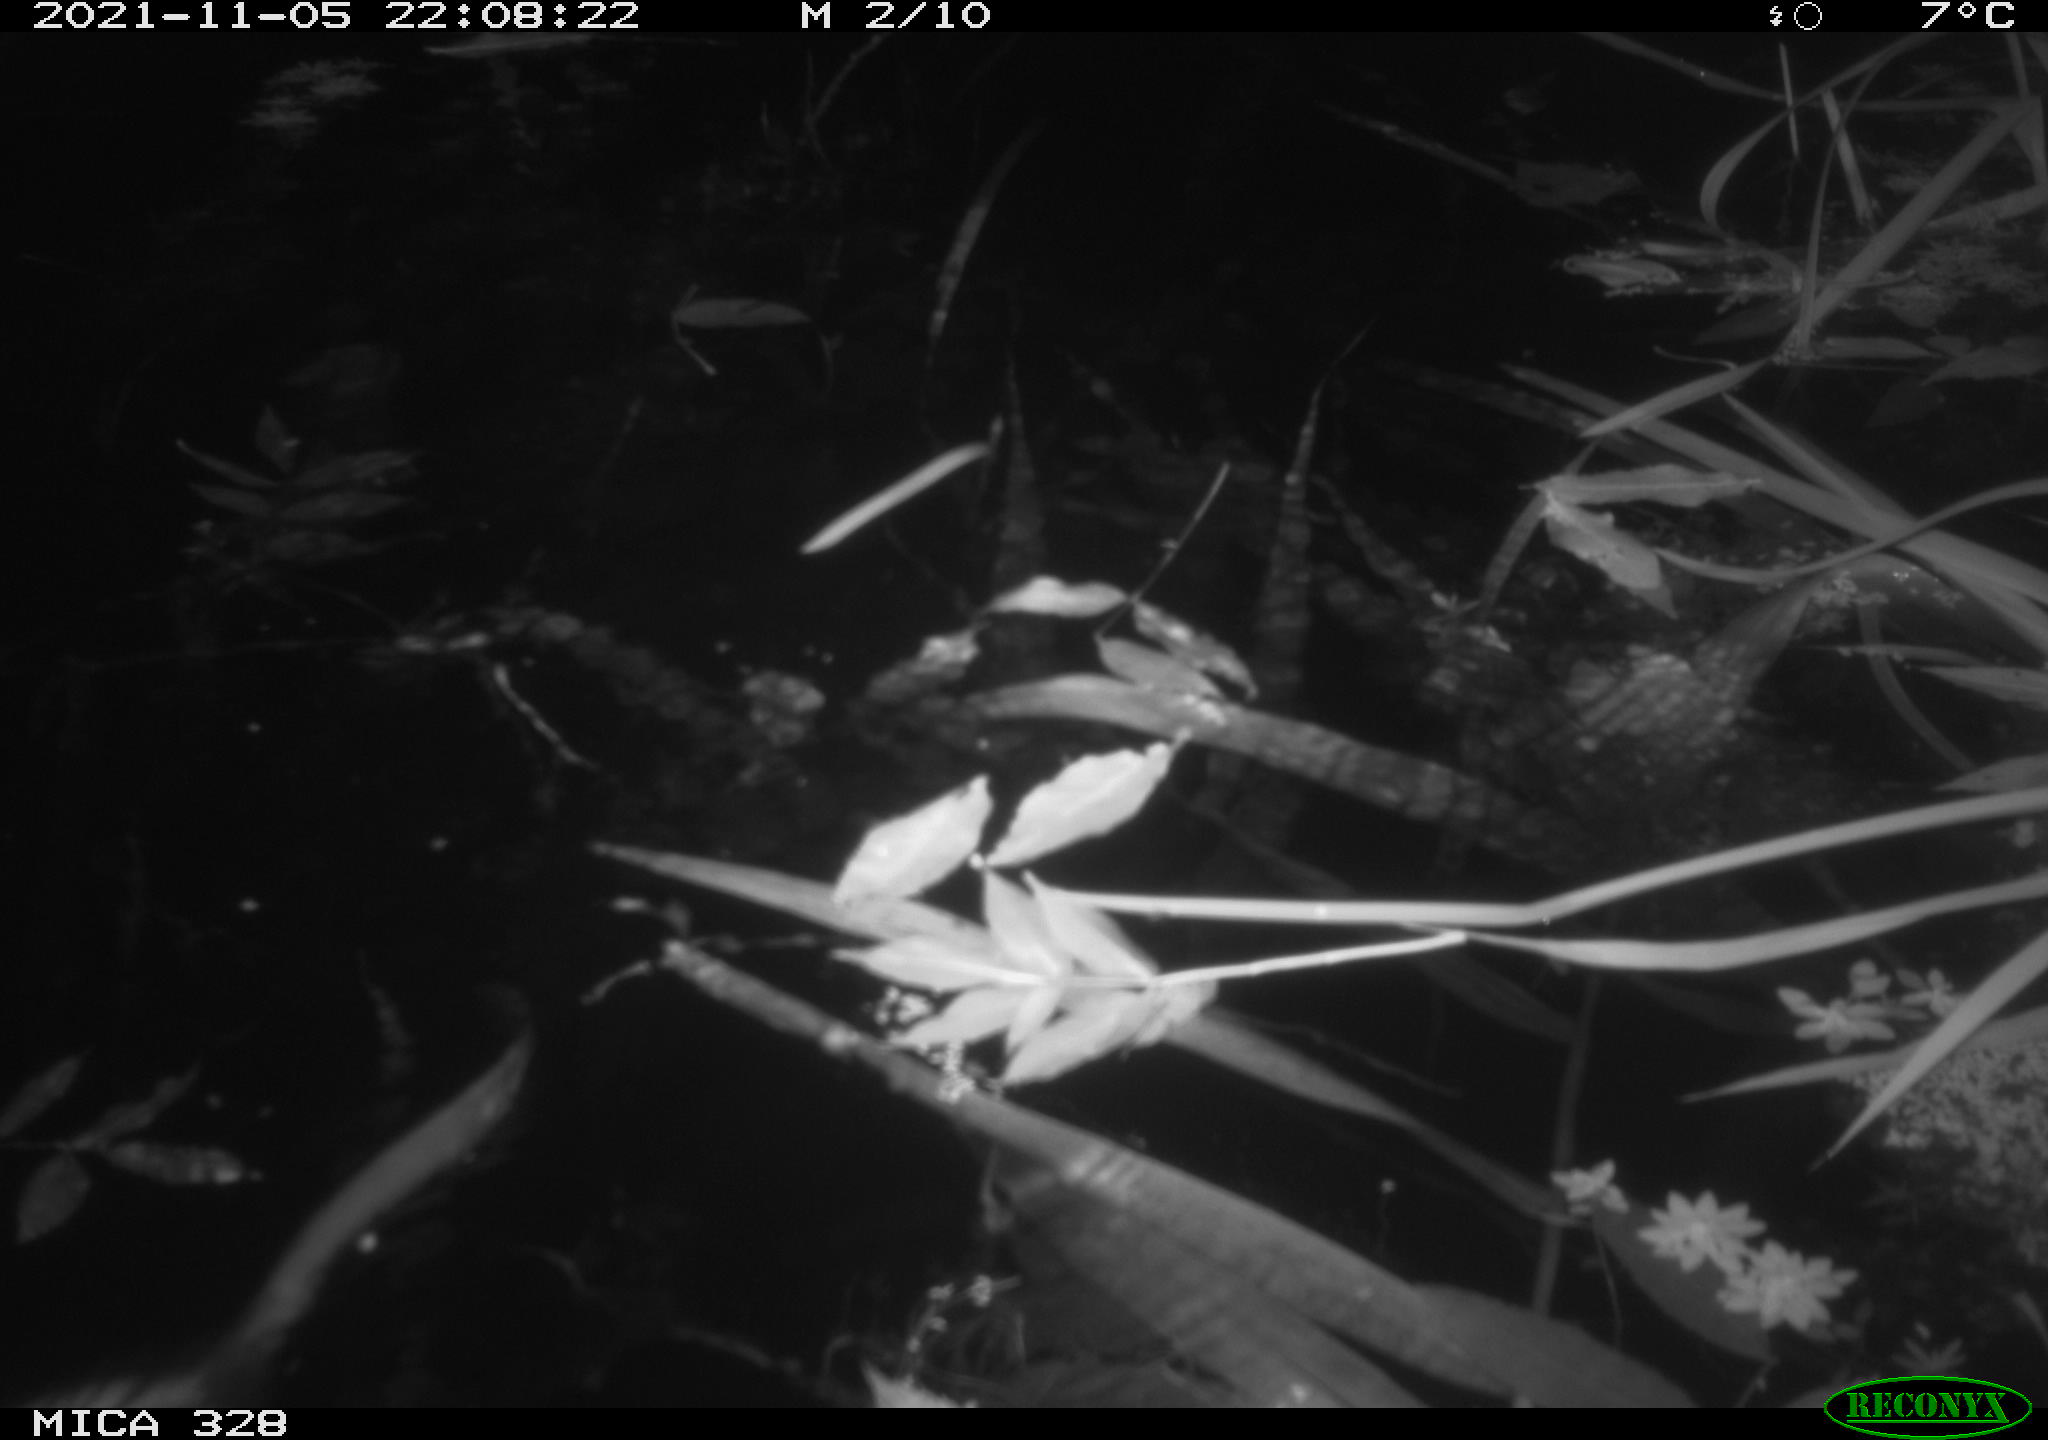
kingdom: Animalia
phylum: Chordata
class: Mammalia
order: Rodentia
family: Cricetidae
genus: Ondatra
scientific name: Ondatra zibethicus
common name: Muskrat
